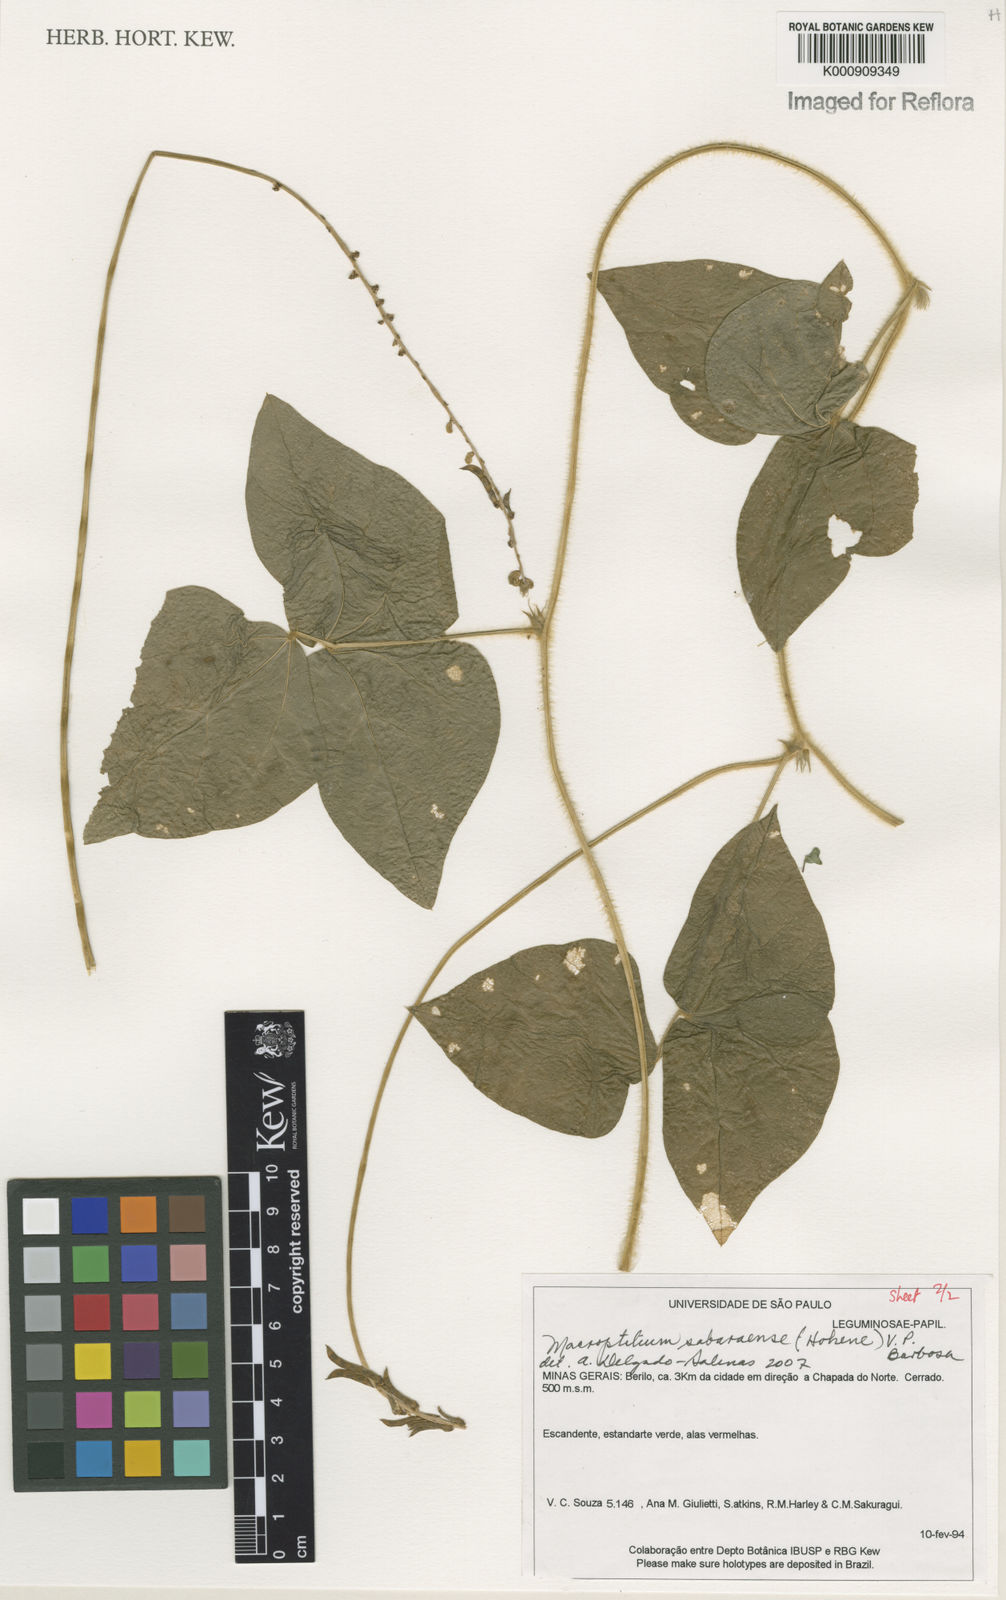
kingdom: Plantae
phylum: Tracheophyta
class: Magnoliopsida
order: Fabales
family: Fabaceae
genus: Macroptilium
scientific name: Macroptilium sabaraense
